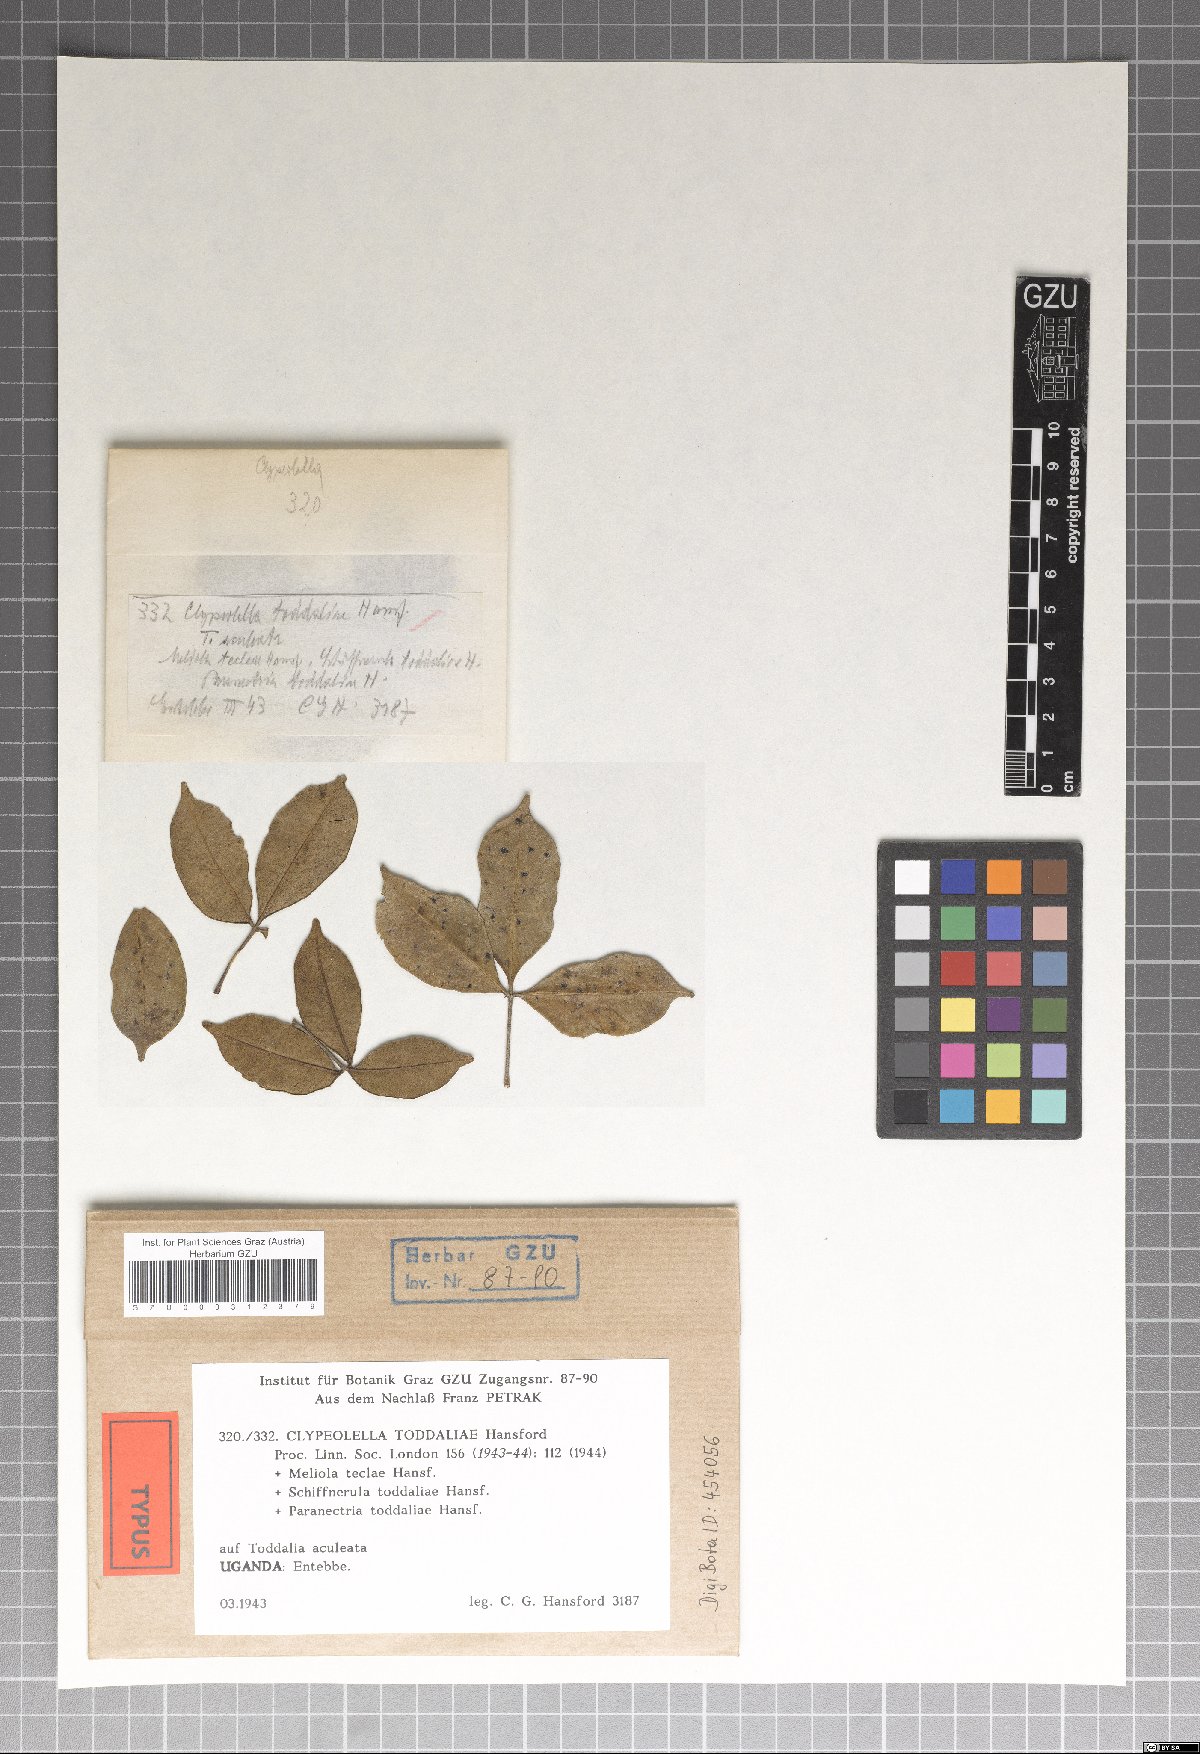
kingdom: Fungi
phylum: Ascomycota
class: Dothideomycetes
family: Englerulaceae
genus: Clypeolella
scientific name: Clypeolella toddaliae
